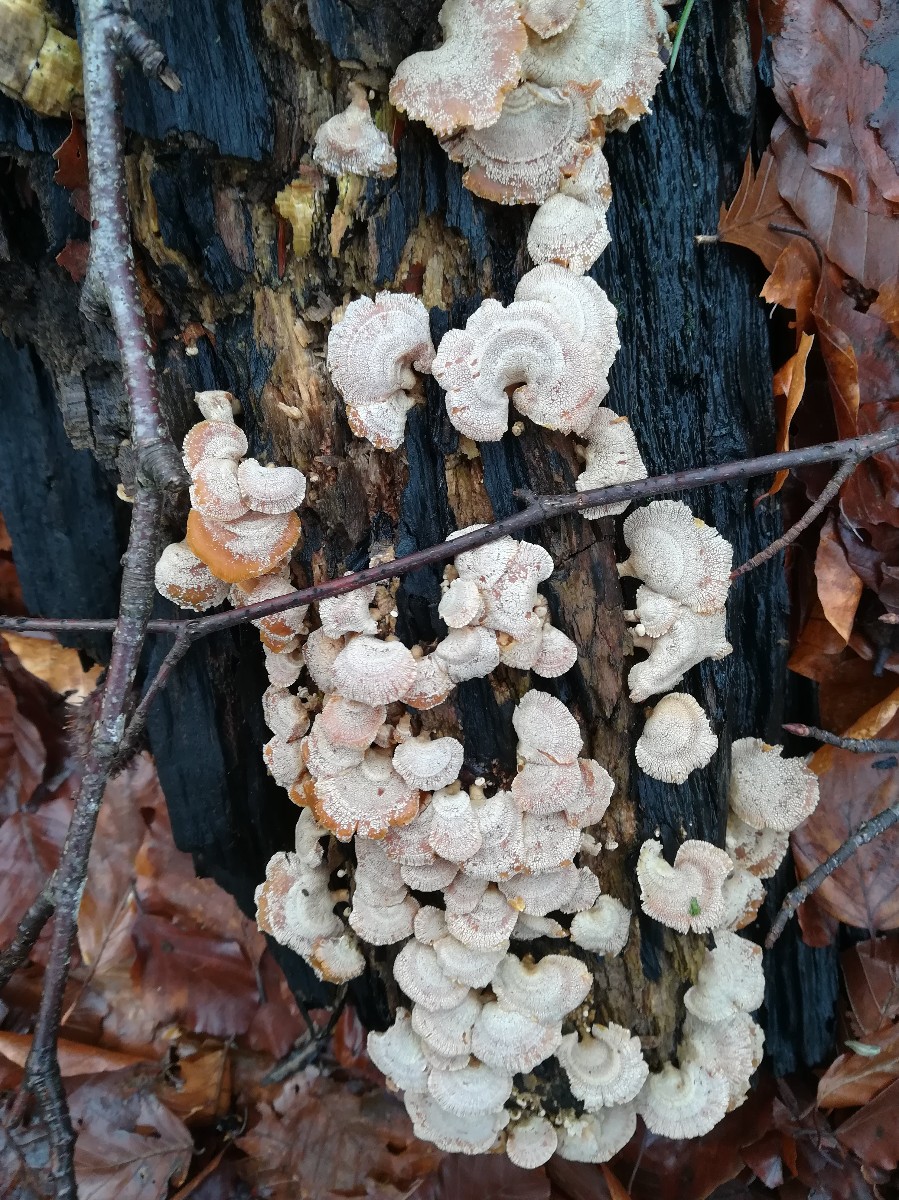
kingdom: Fungi
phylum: Basidiomycota
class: Agaricomycetes
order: Agaricales
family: Mycenaceae
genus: Panellus
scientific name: Panellus stipticus
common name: kliddet epaulethat
